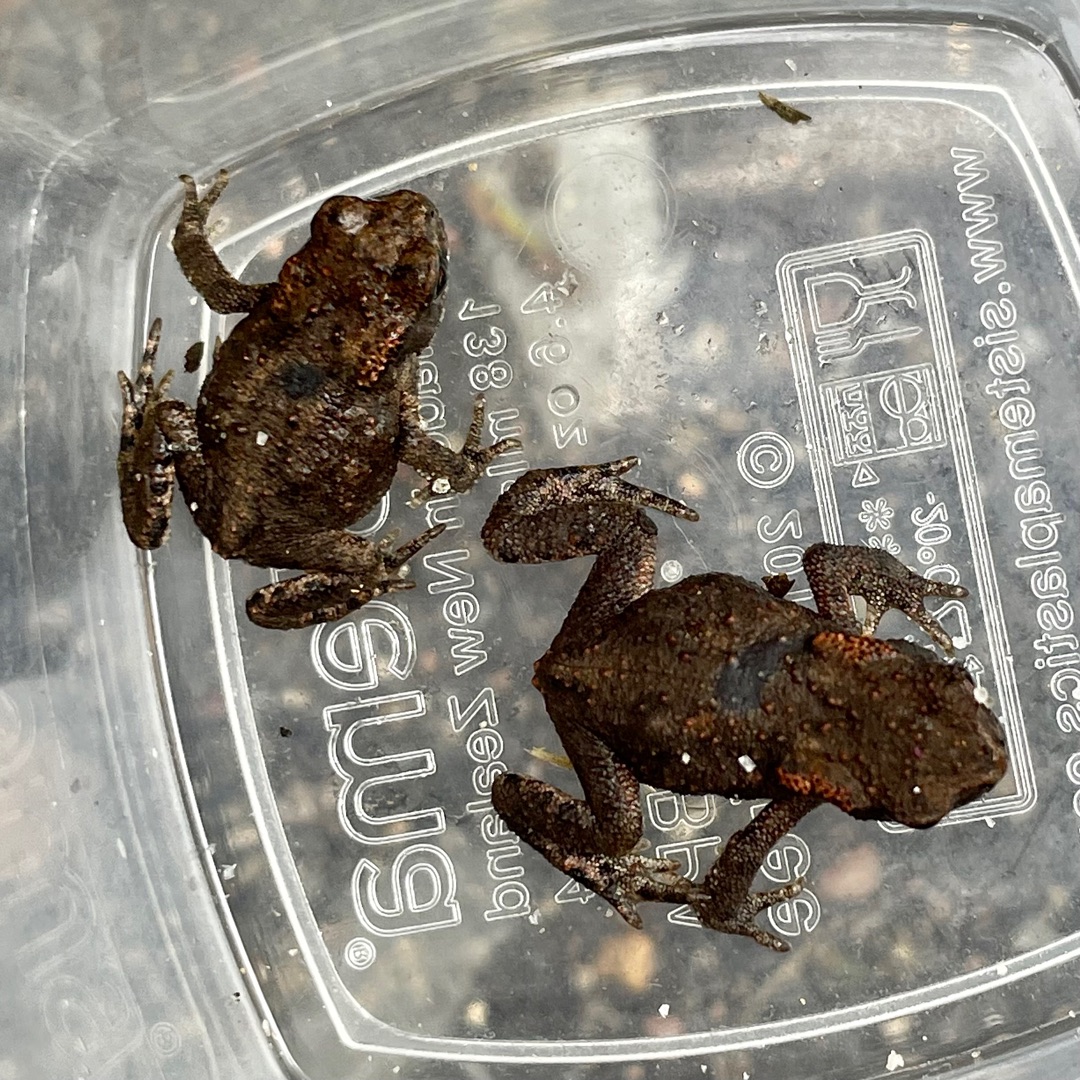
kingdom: Animalia
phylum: Chordata
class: Amphibia
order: Anura
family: Bufonidae
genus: Bufo
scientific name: Bufo bufo
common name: Skrubtudse
